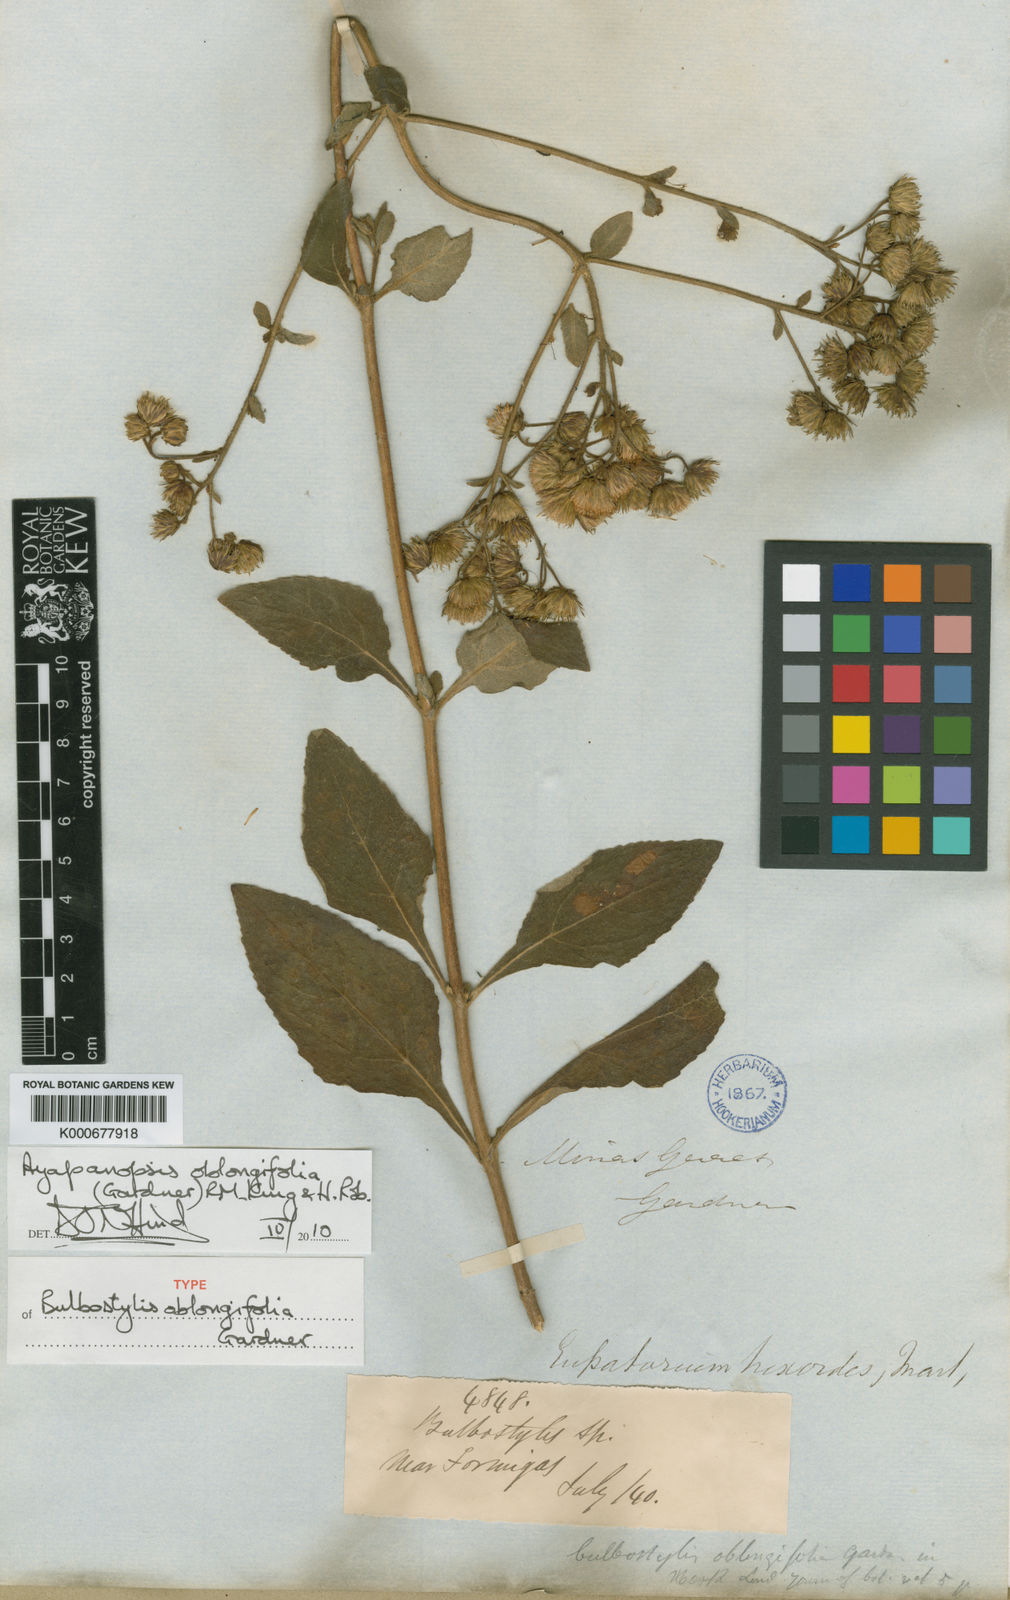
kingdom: Plantae
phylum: Tracheophyta
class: Magnoliopsida
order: Asterales
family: Asteraceae
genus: Ayapanopsis
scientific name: Ayapanopsis oblongifolia
